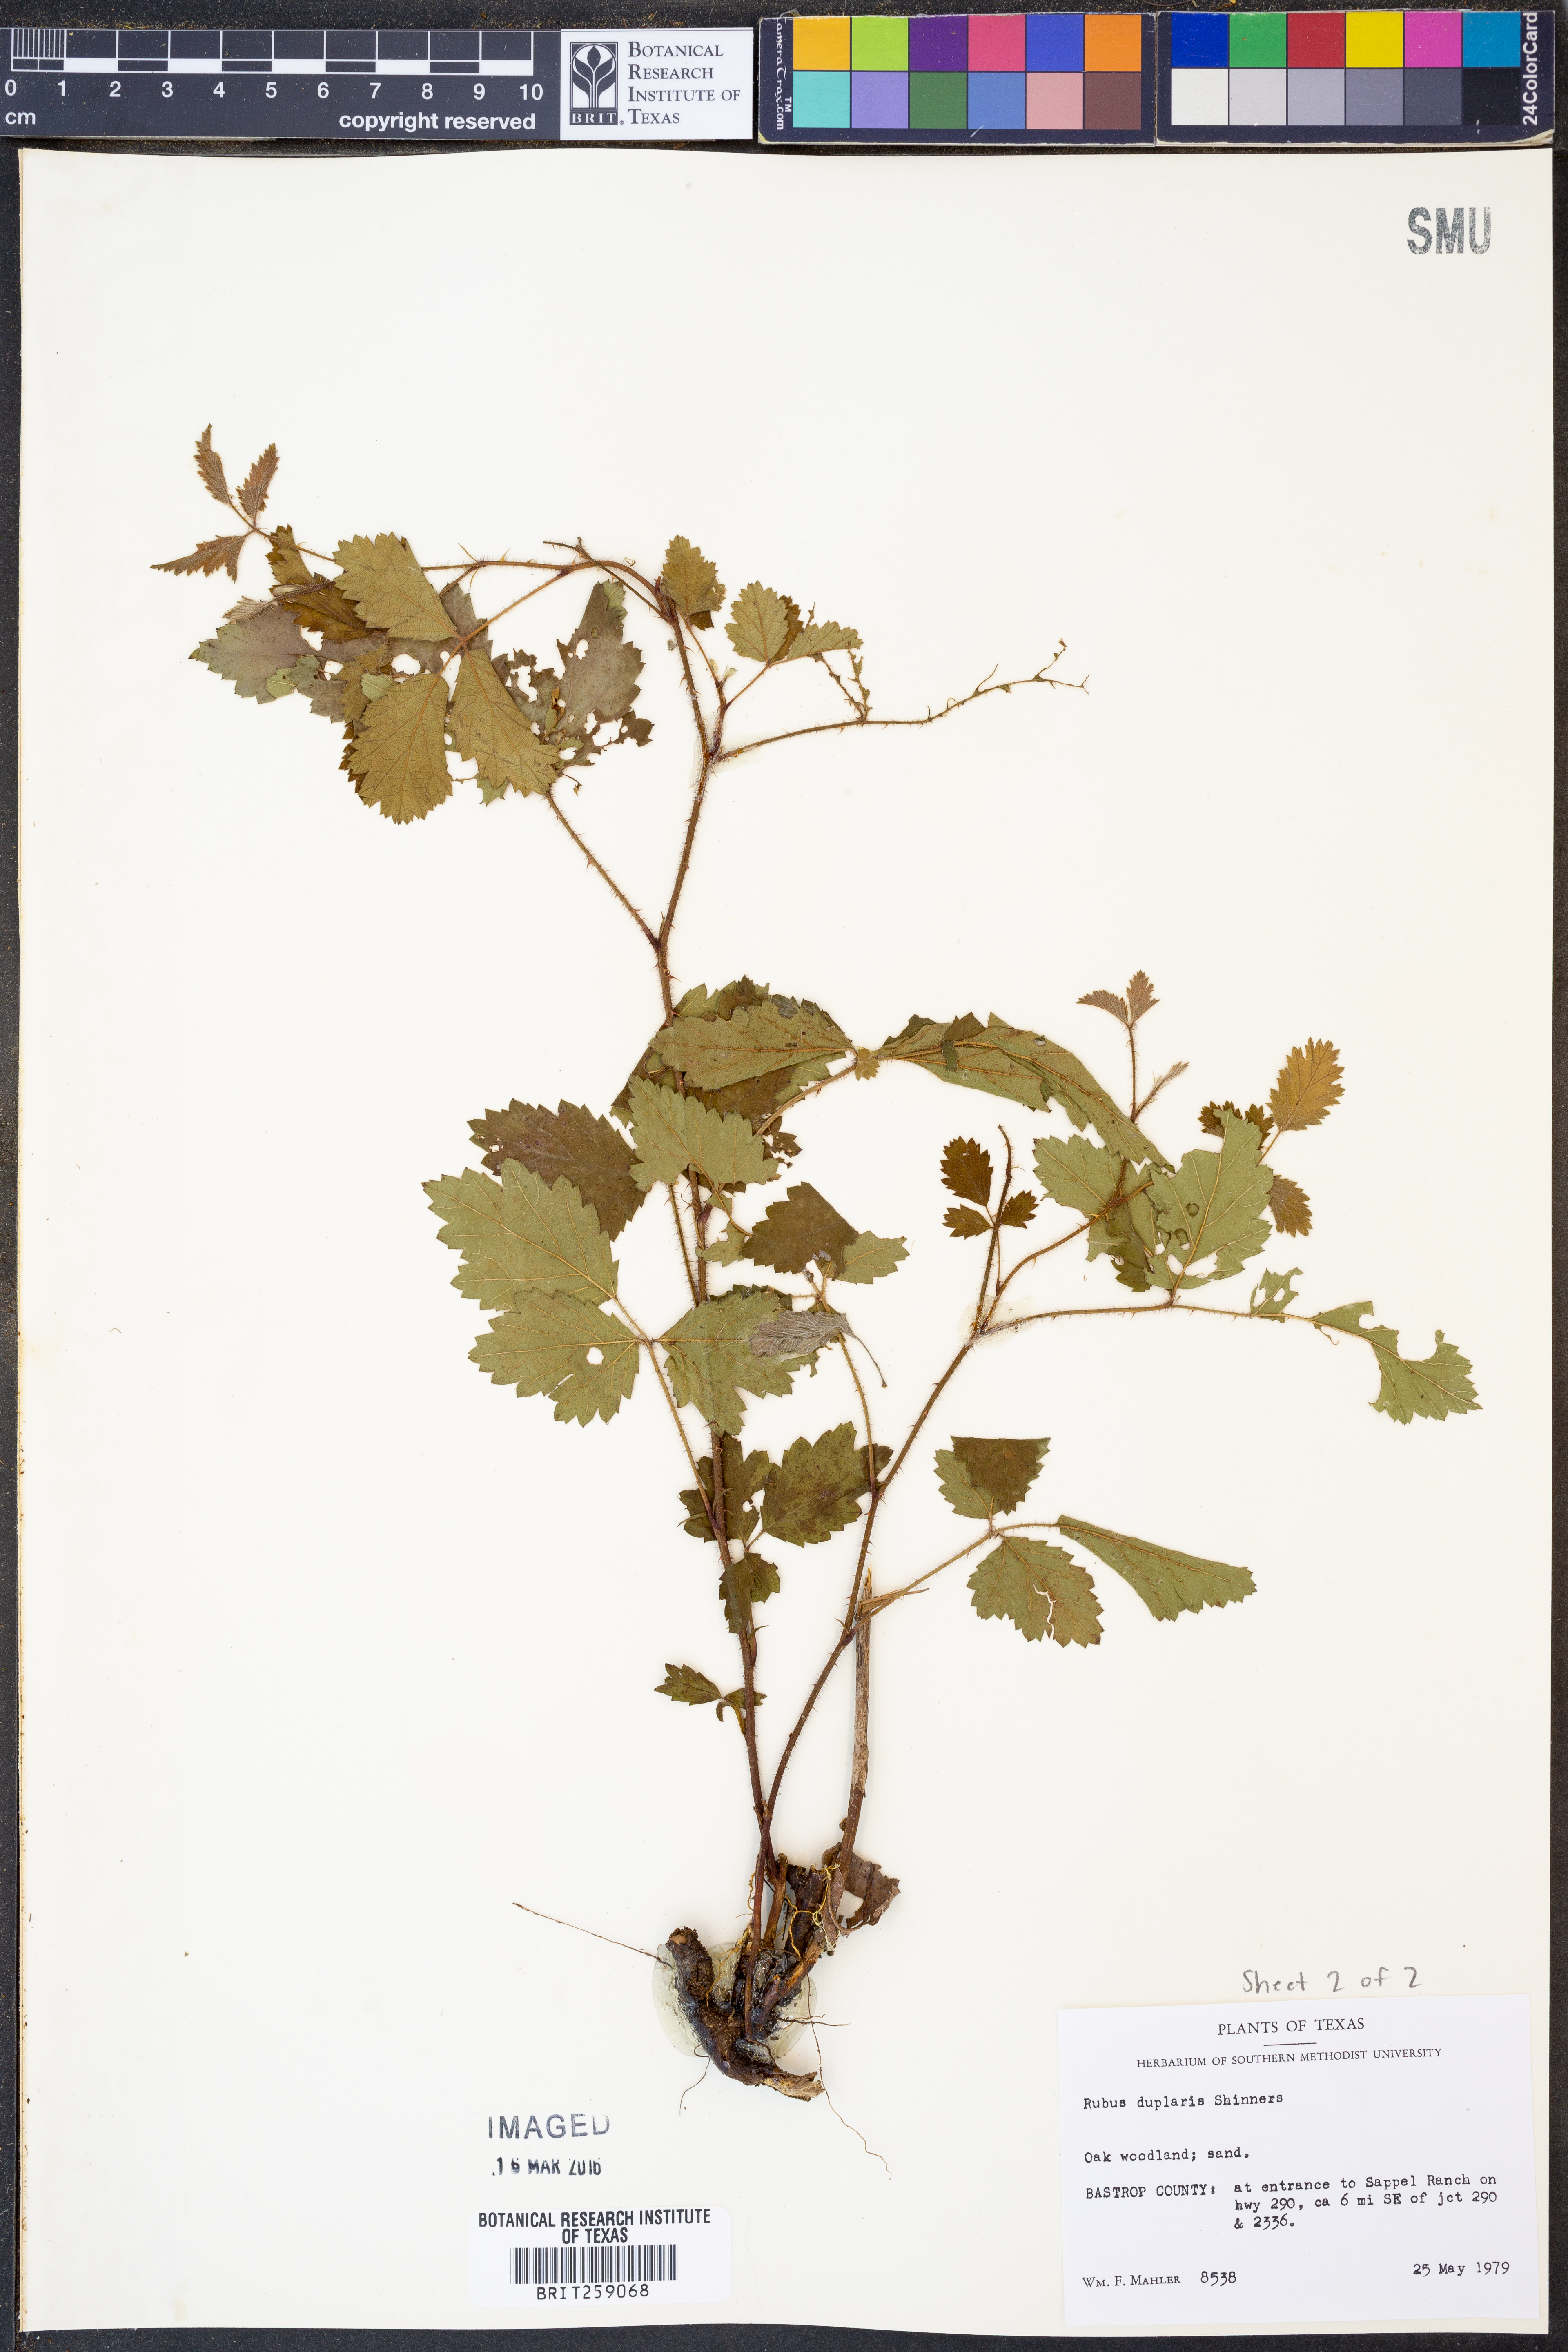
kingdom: Plantae
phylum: Tracheophyta
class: Magnoliopsida
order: Rosales
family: Rosaceae
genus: Rubus
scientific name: Rubus riograndis
